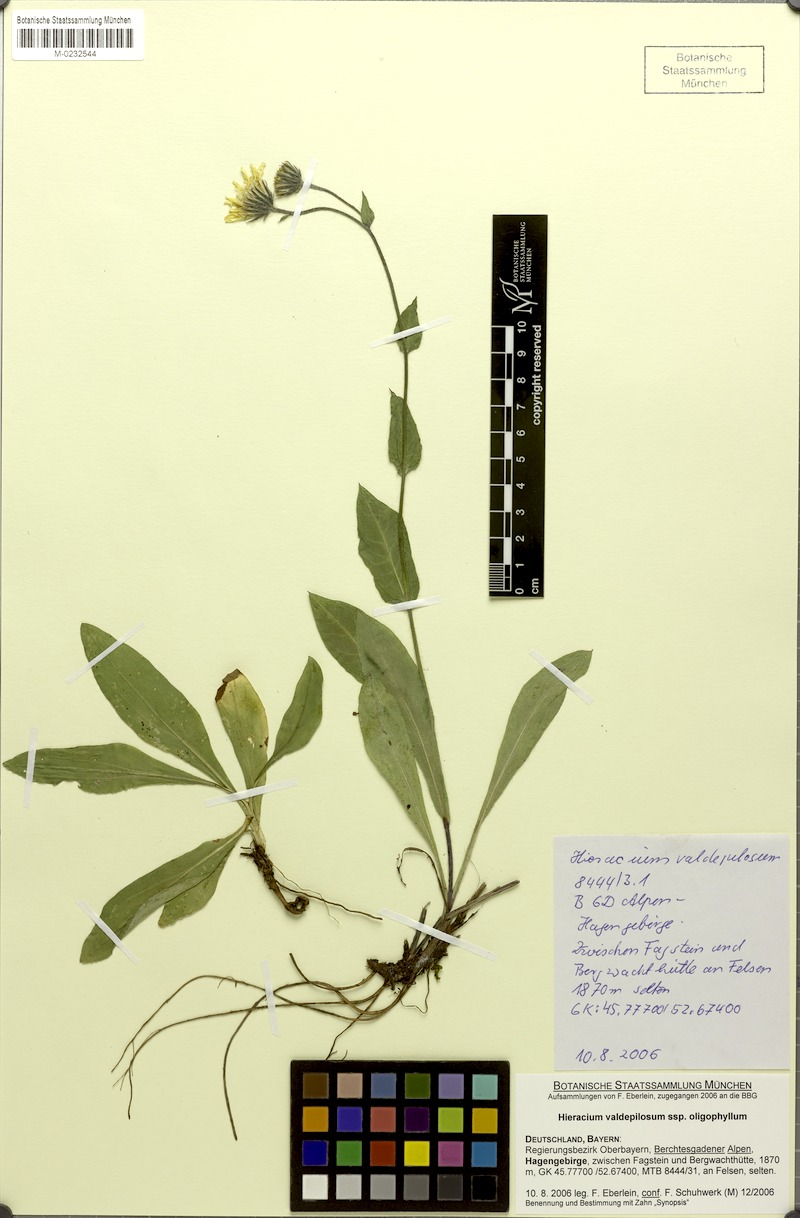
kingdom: Plantae
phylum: Tracheophyta
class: Magnoliopsida
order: Asterales
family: Asteraceae
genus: Hieracium
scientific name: Hieracium valdepilosum
